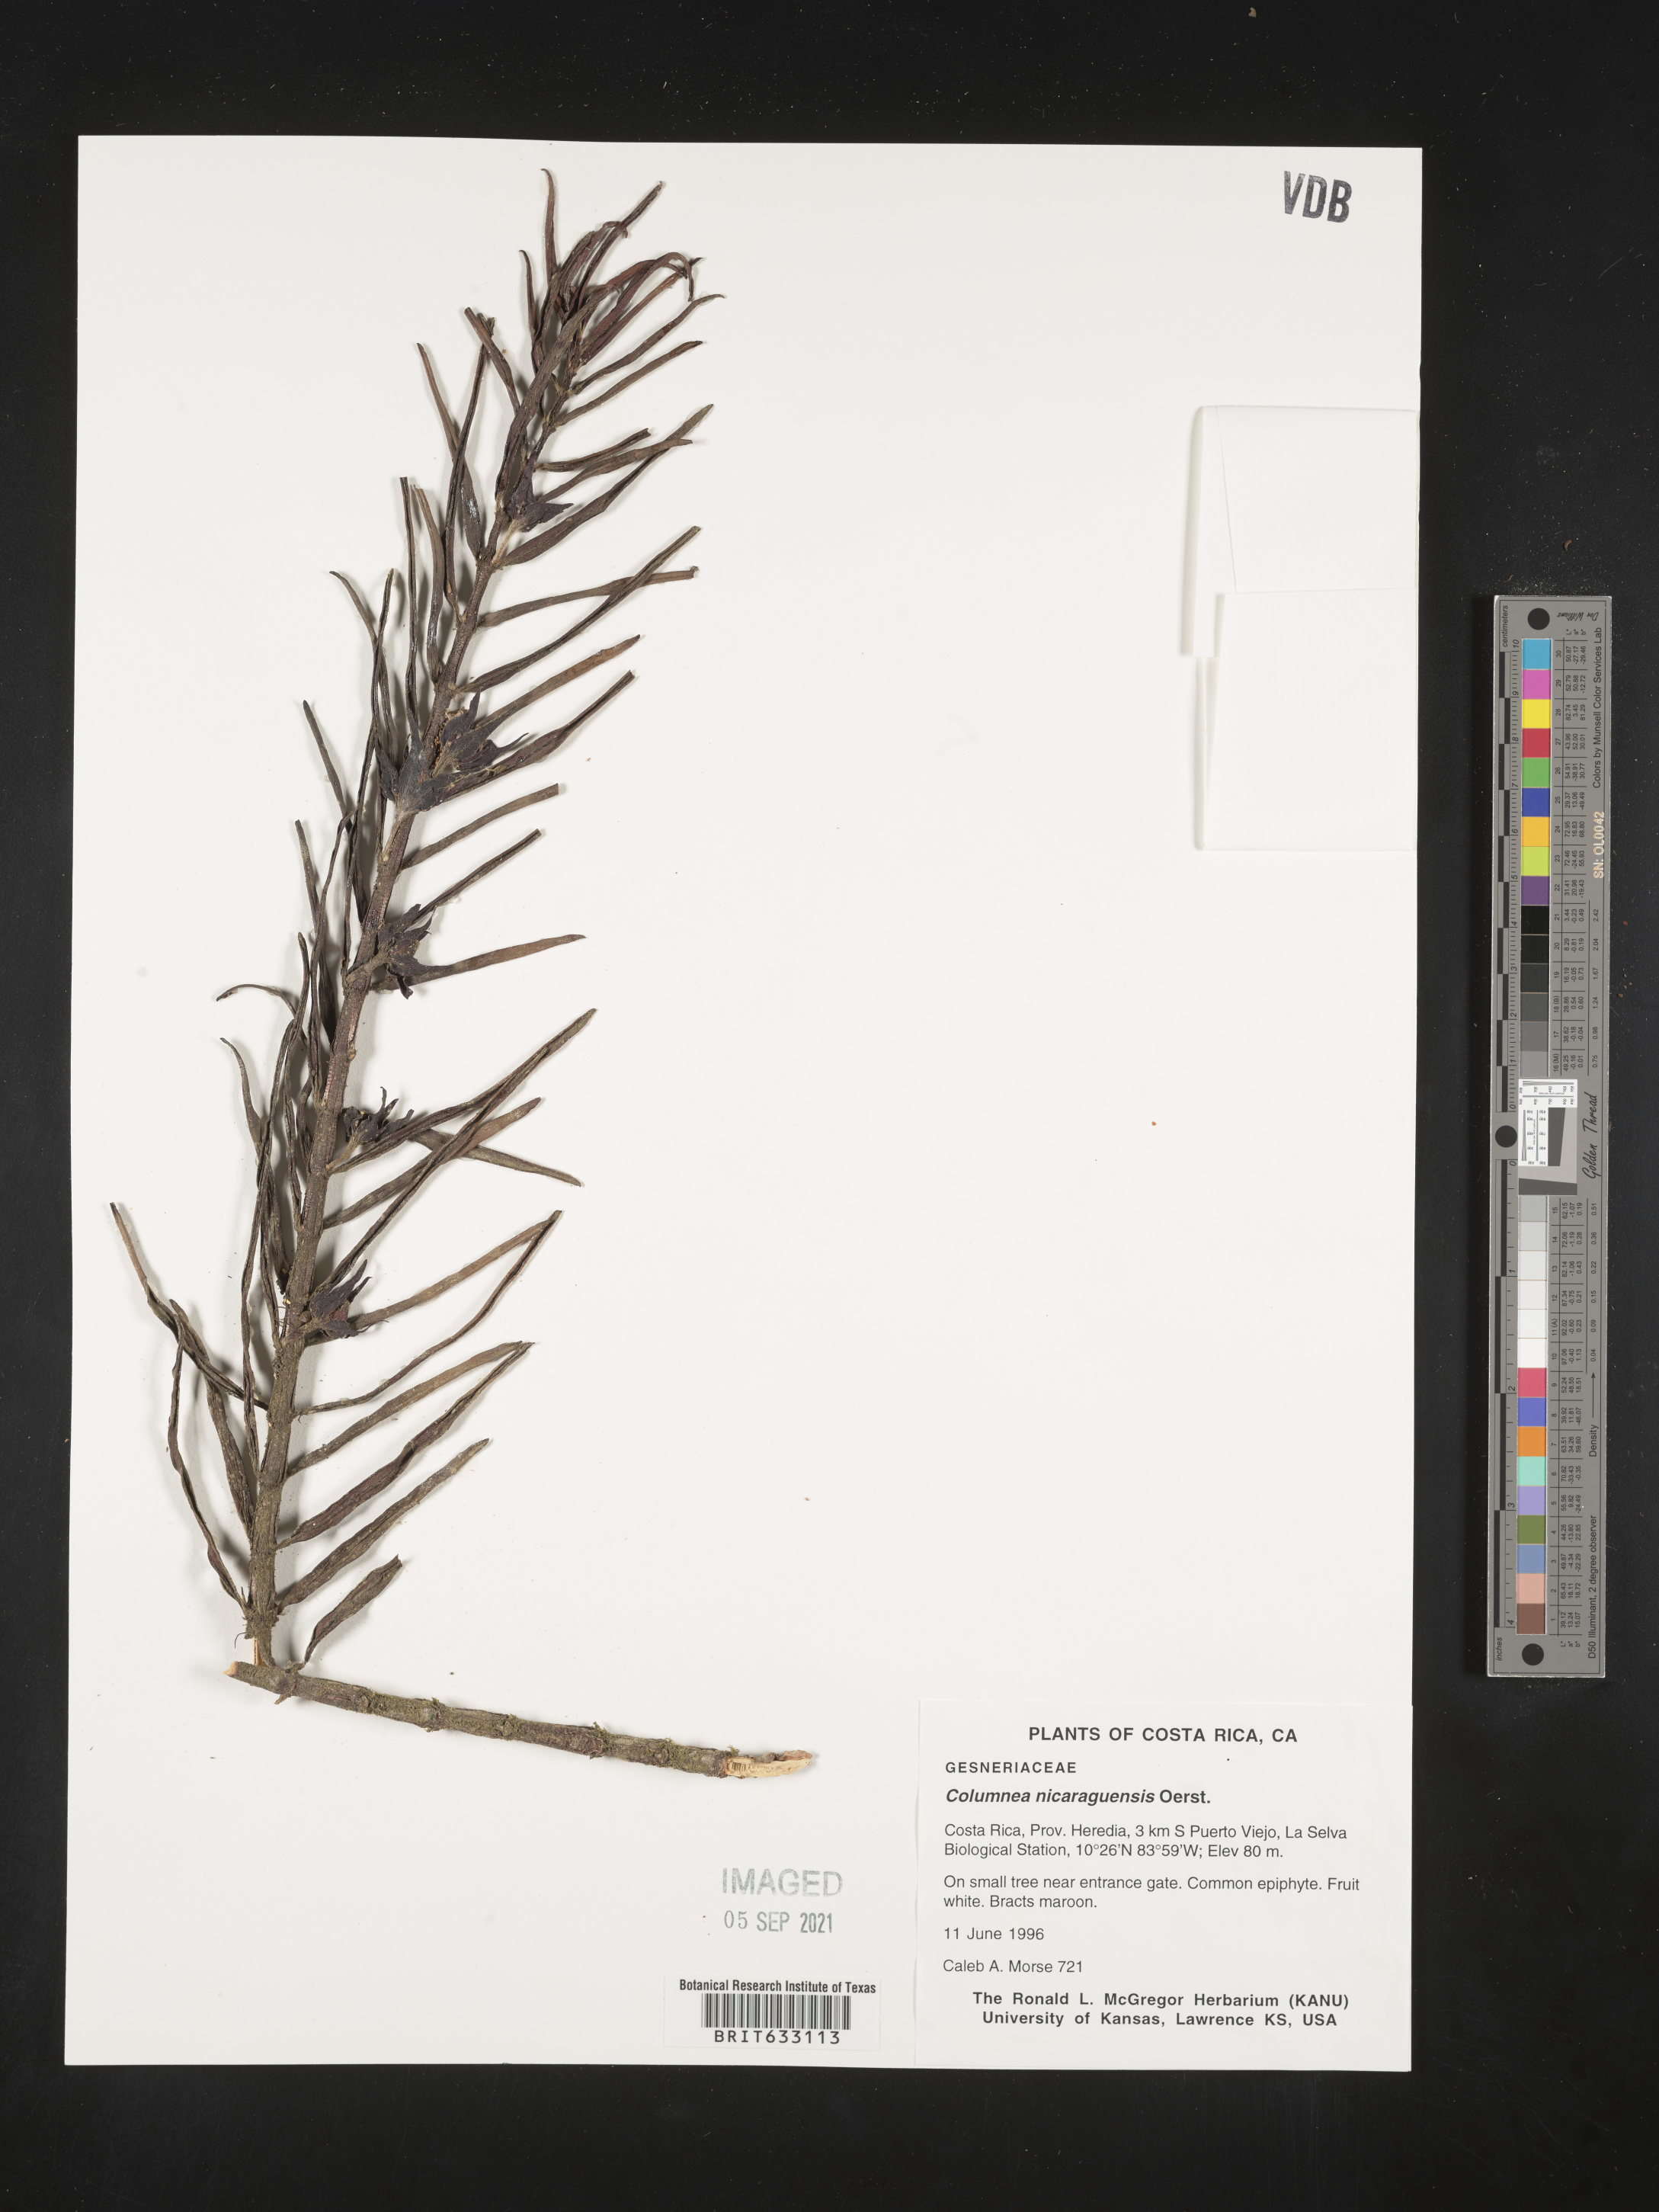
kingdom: Plantae
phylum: Tracheophyta
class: Magnoliopsida
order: Lamiales
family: Gesneriaceae
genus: Columnea
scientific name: Columnea
